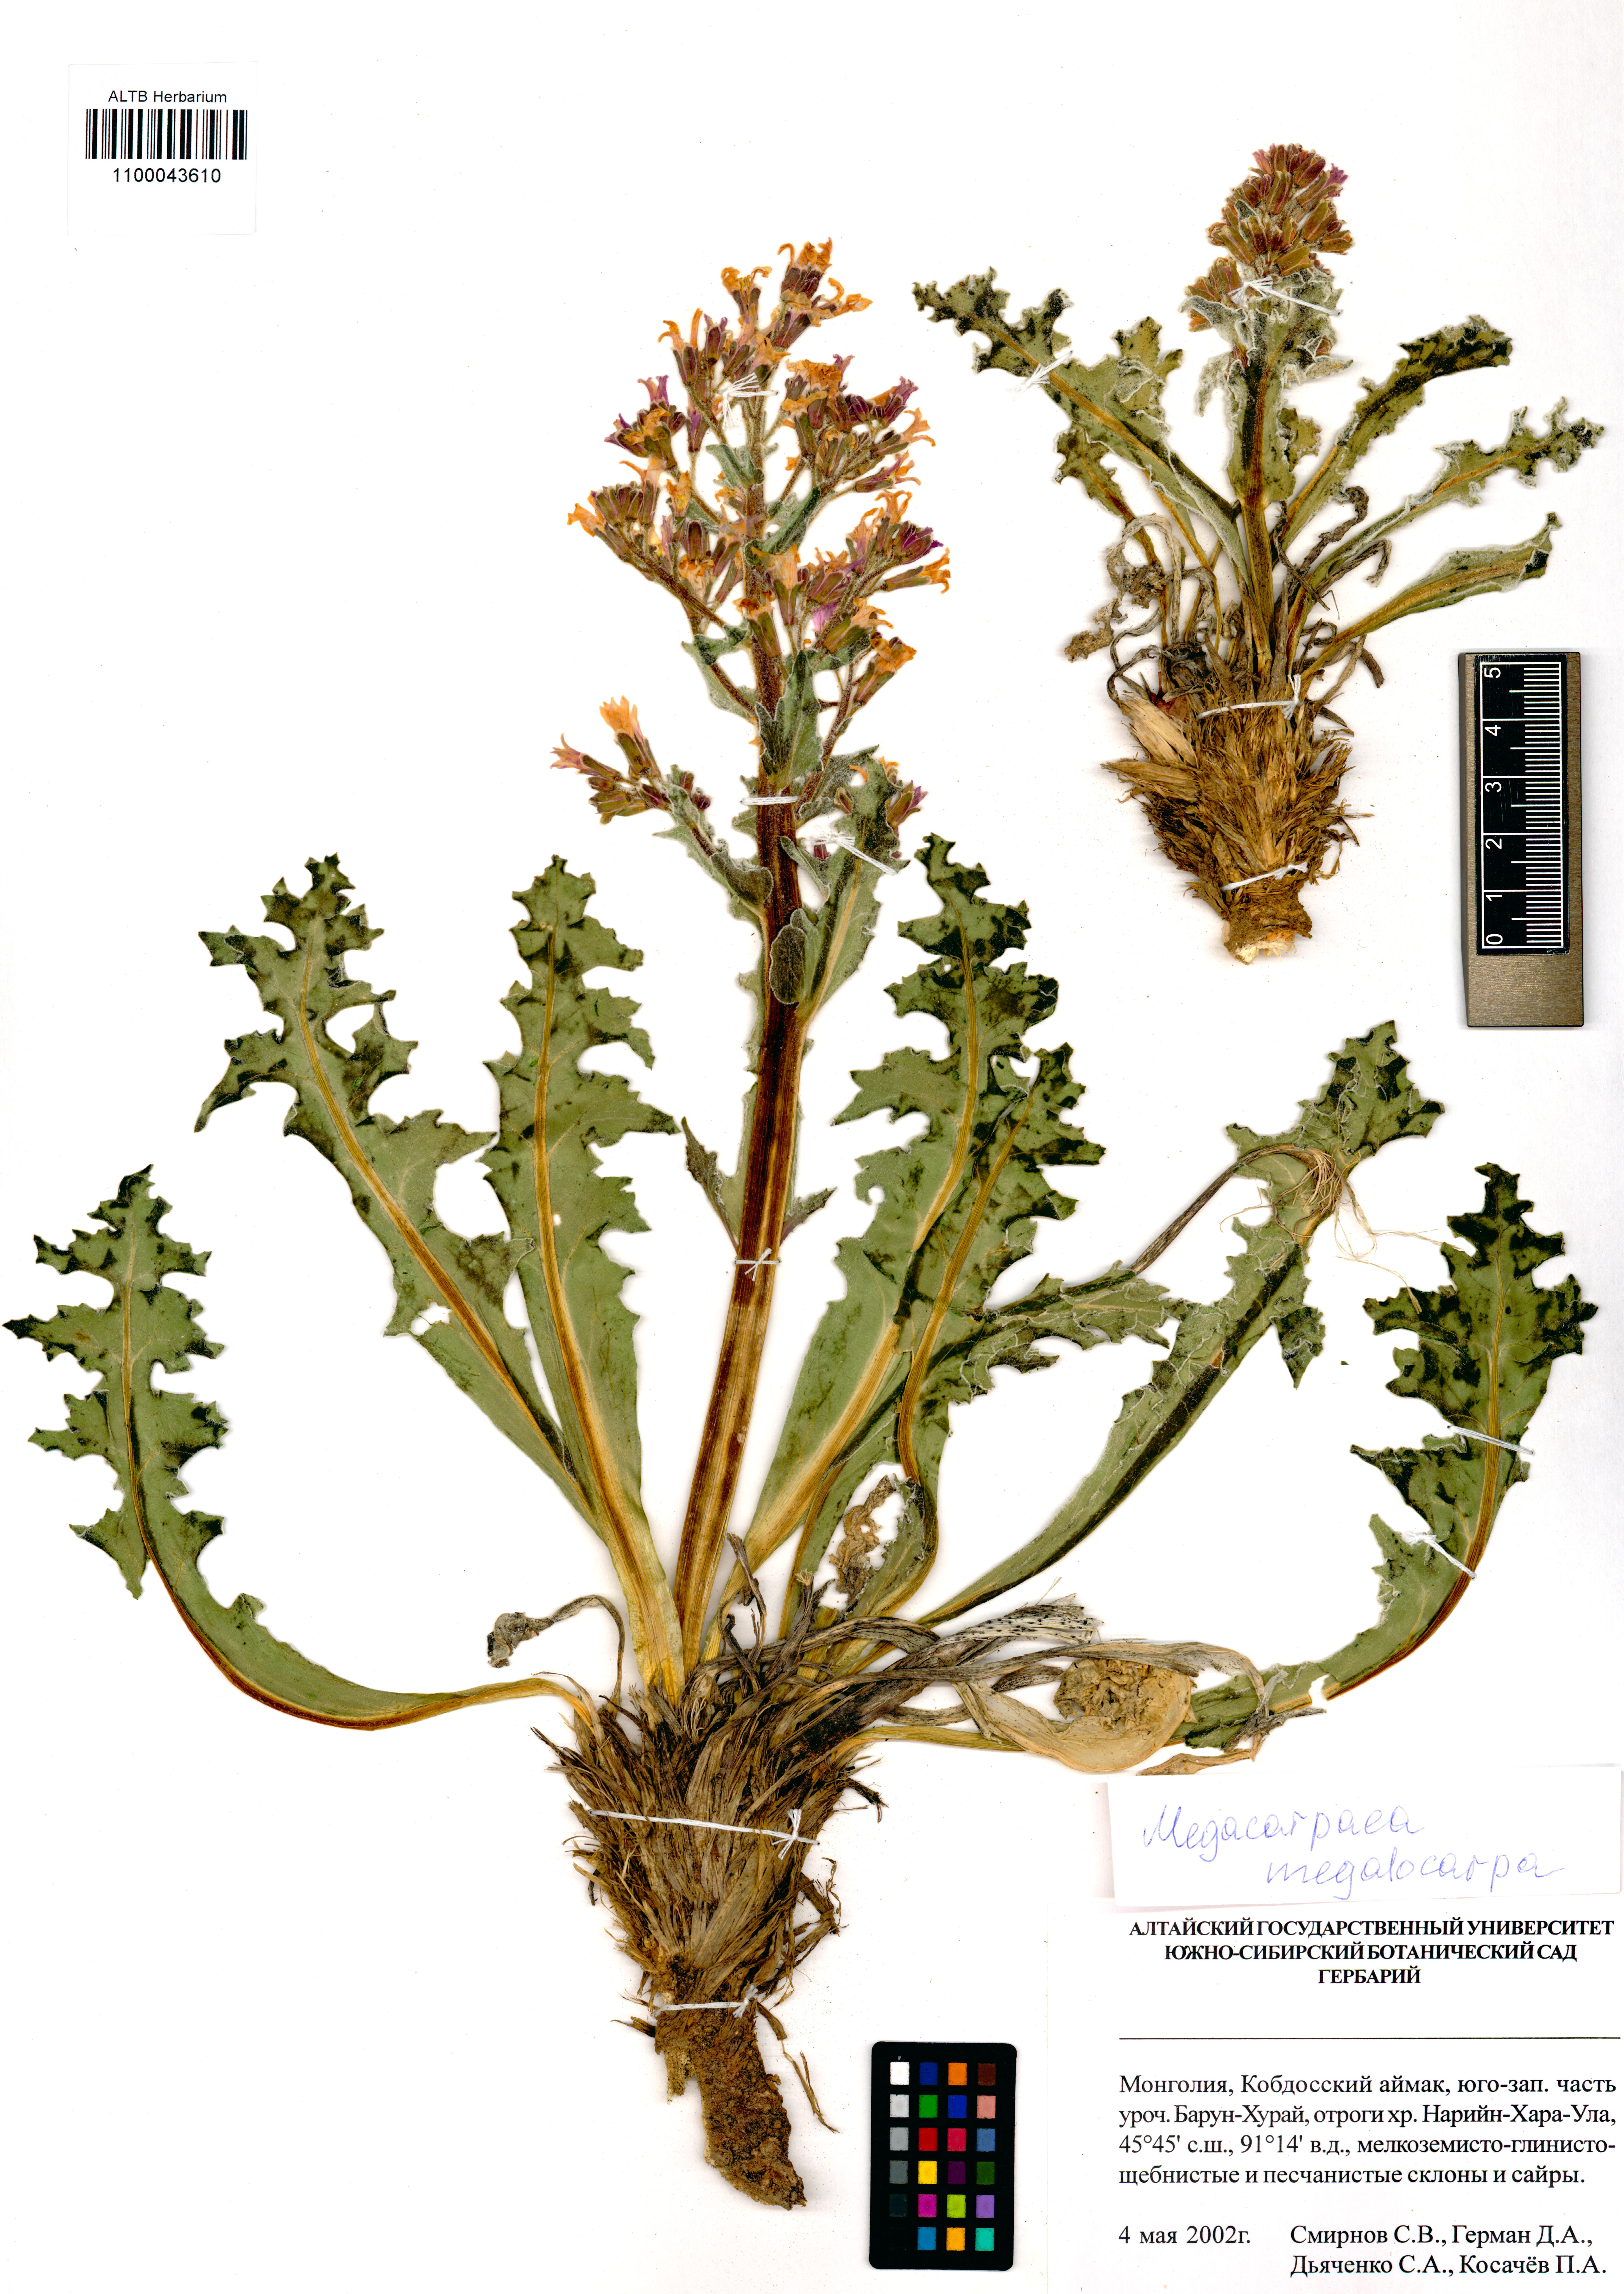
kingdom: Plantae
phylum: Tracheophyta
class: Magnoliopsida
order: Brassicales
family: Brassicaceae
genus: Megacarpaea
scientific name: Megacarpaea megalocarpa
